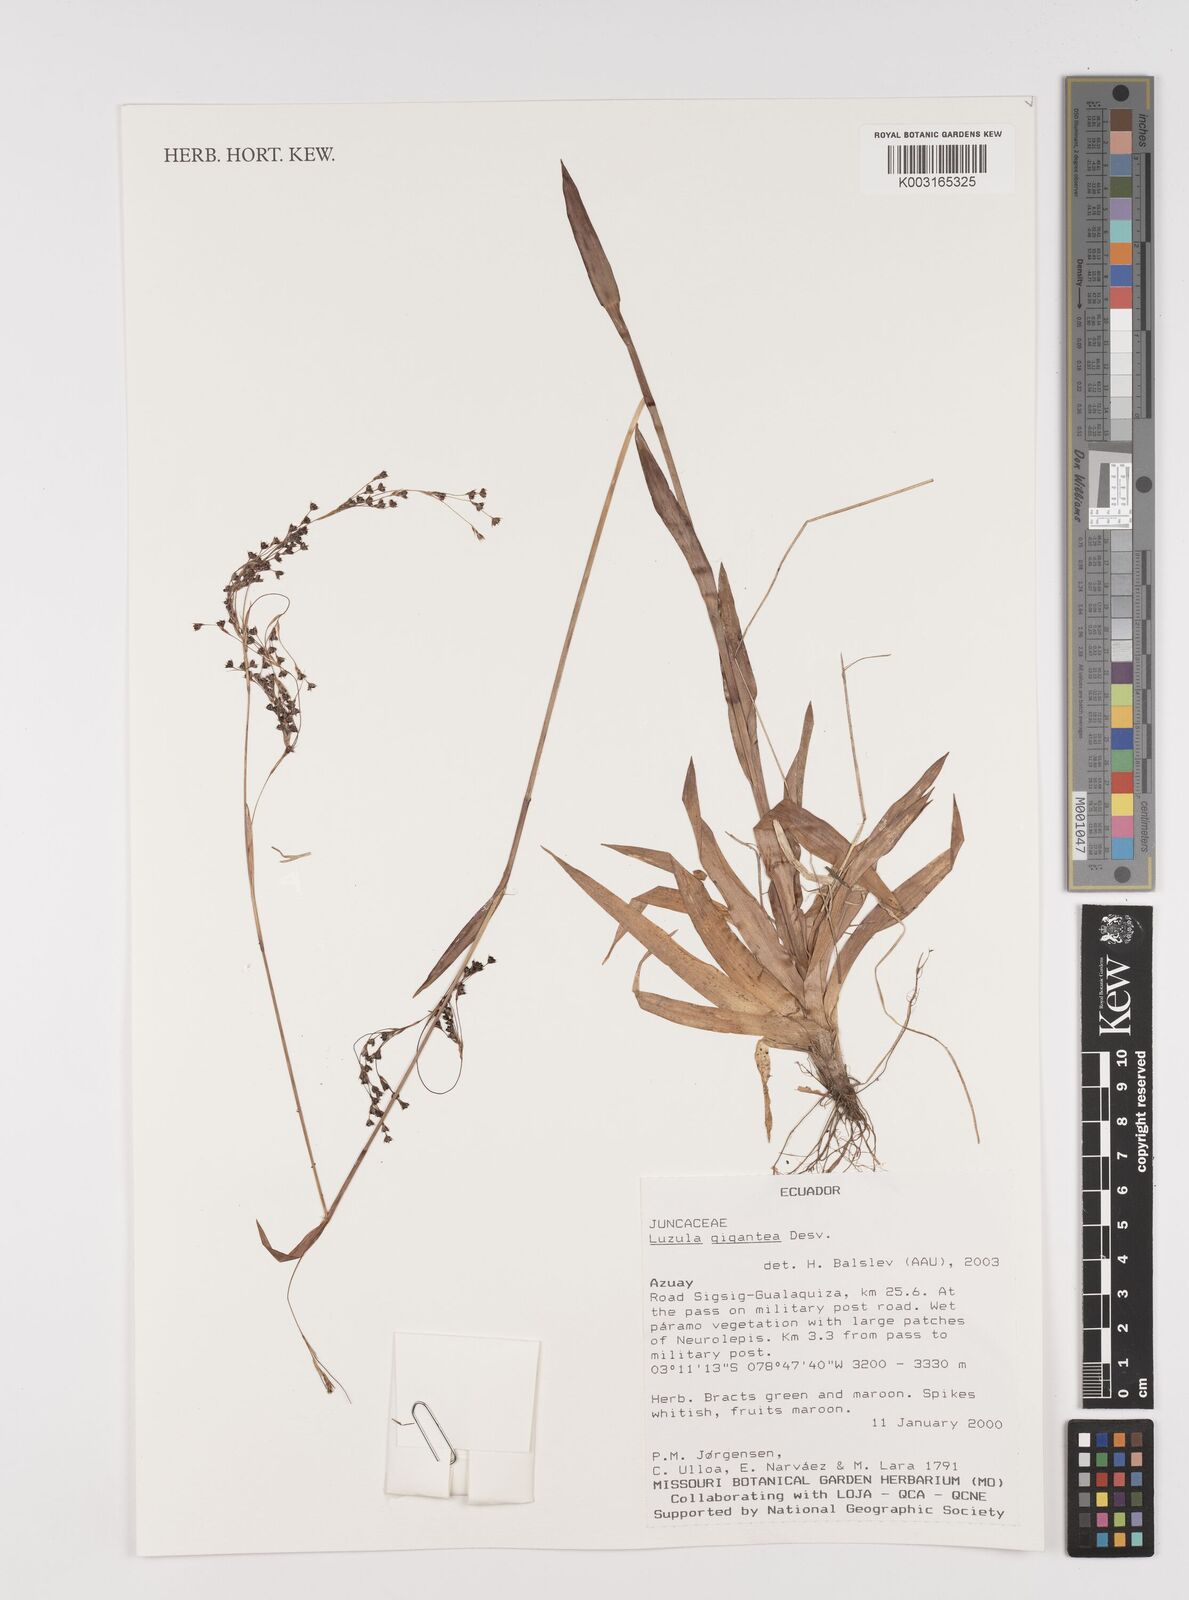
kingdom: Plantae
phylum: Tracheophyta
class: Liliopsida
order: Poales
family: Juncaceae
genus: Luzula
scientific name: Luzula gigantea
